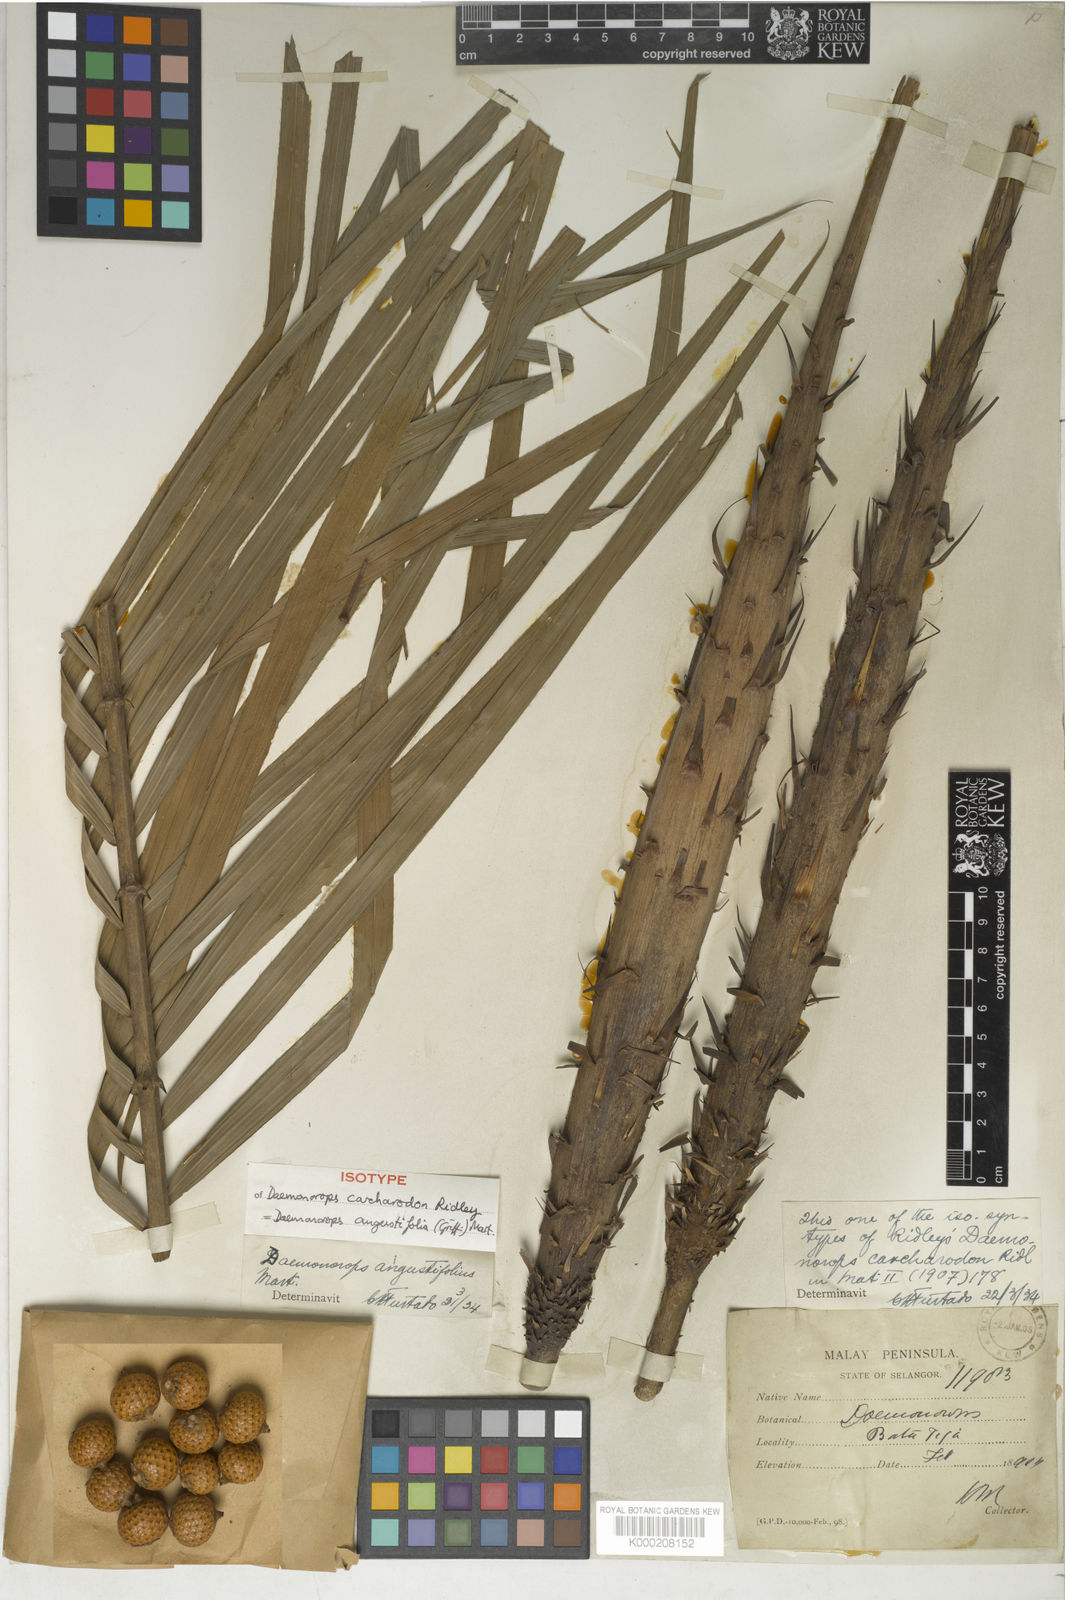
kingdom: Plantae
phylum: Tracheophyta
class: Liliopsida
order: Arecales
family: Arecaceae
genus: Calamus
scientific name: Calamus melanochaetes
